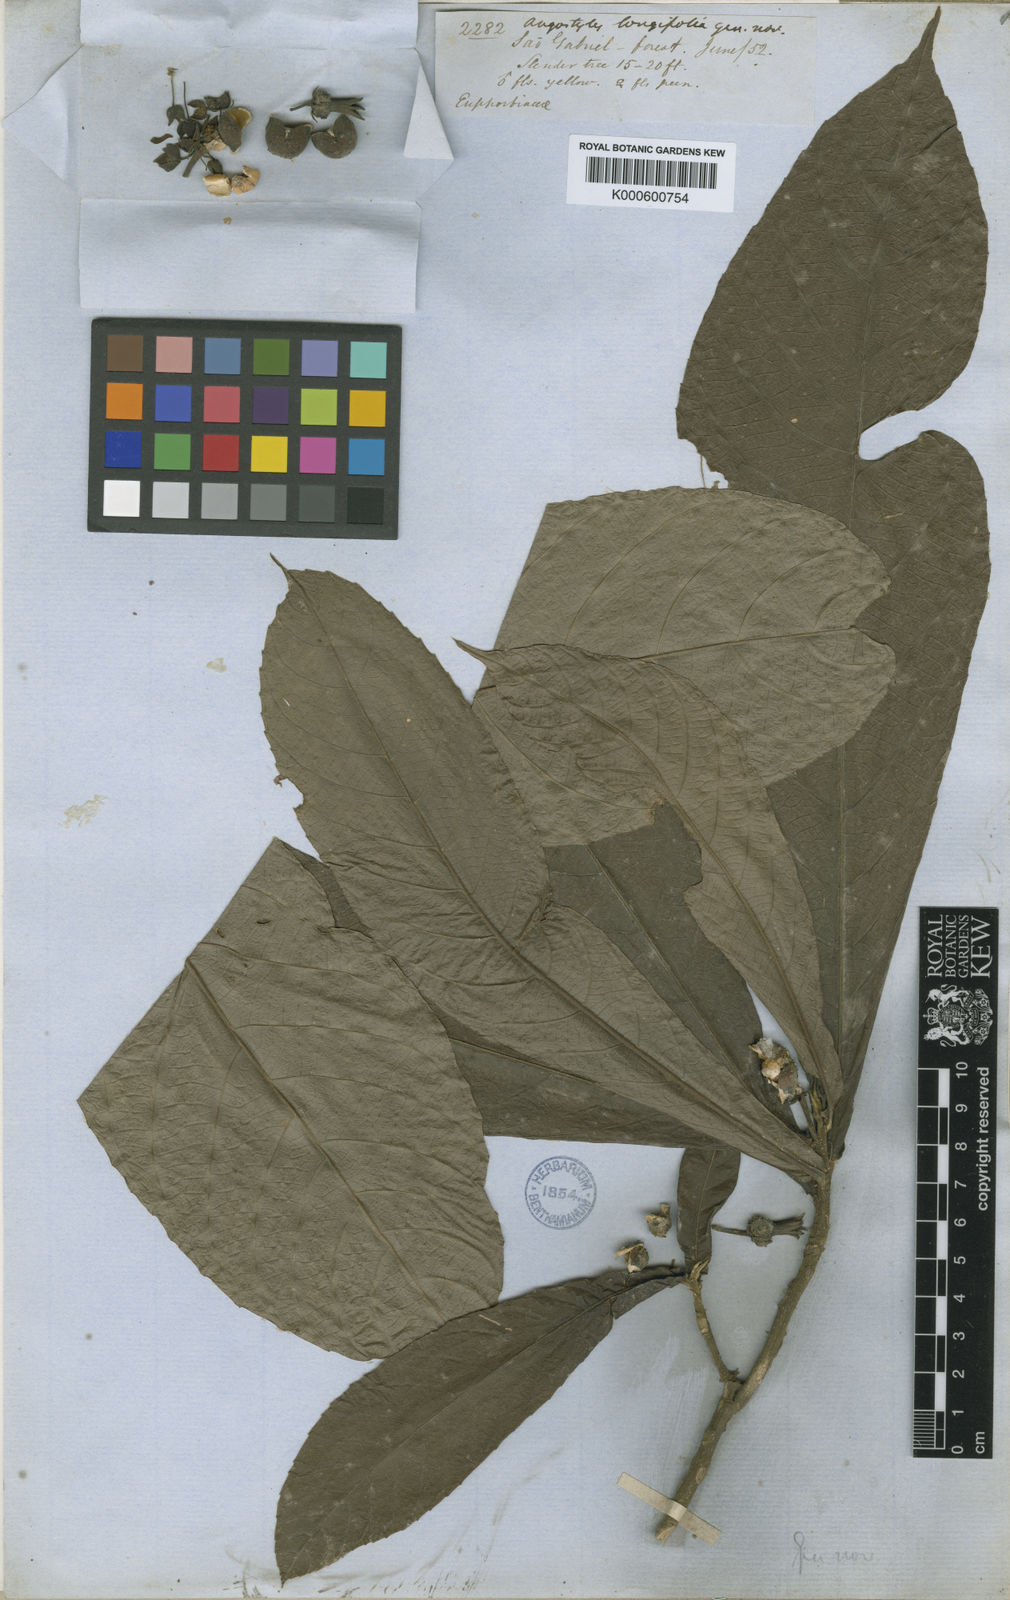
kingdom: Plantae
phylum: Tracheophyta
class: Magnoliopsida
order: Malpighiales
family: Euphorbiaceae
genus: Angostylis
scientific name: Angostylis longifolia
